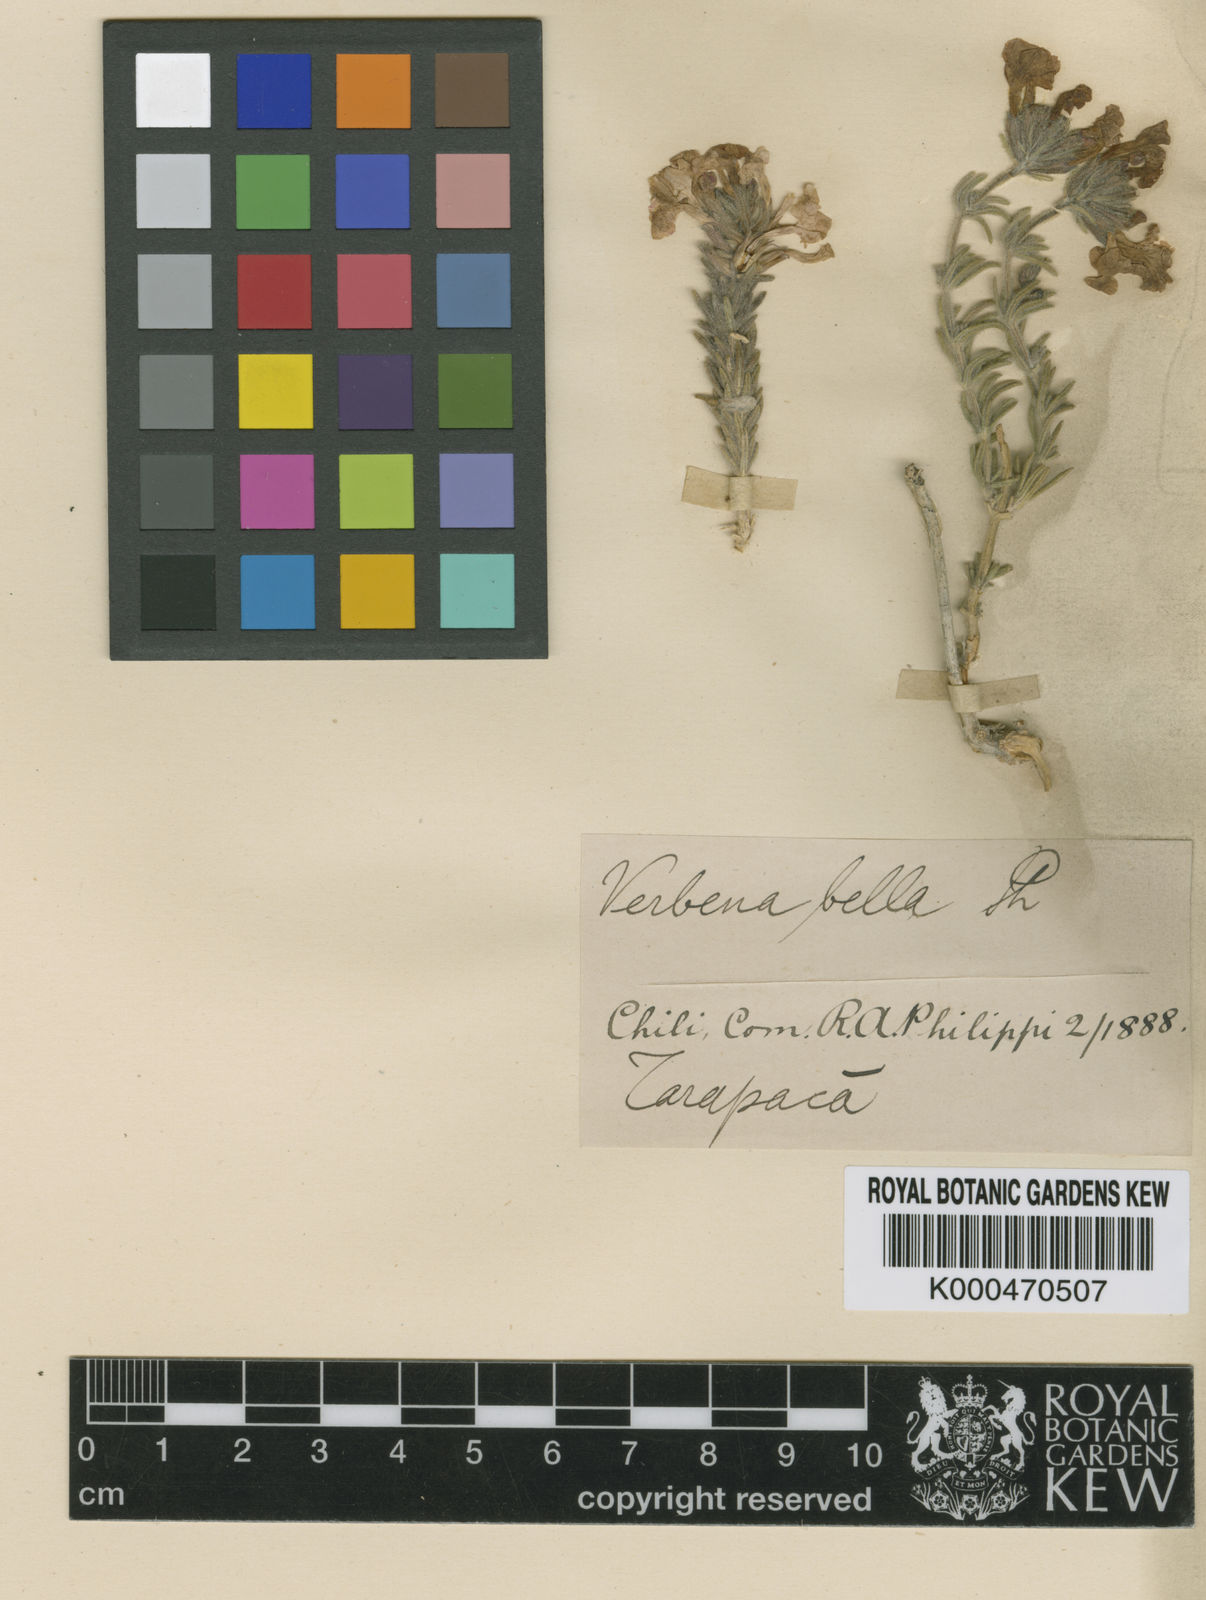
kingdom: Plantae
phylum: Tracheophyta
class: Magnoliopsida
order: Lamiales
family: Verbenaceae
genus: Verbena
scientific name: Verbena gynobasis
